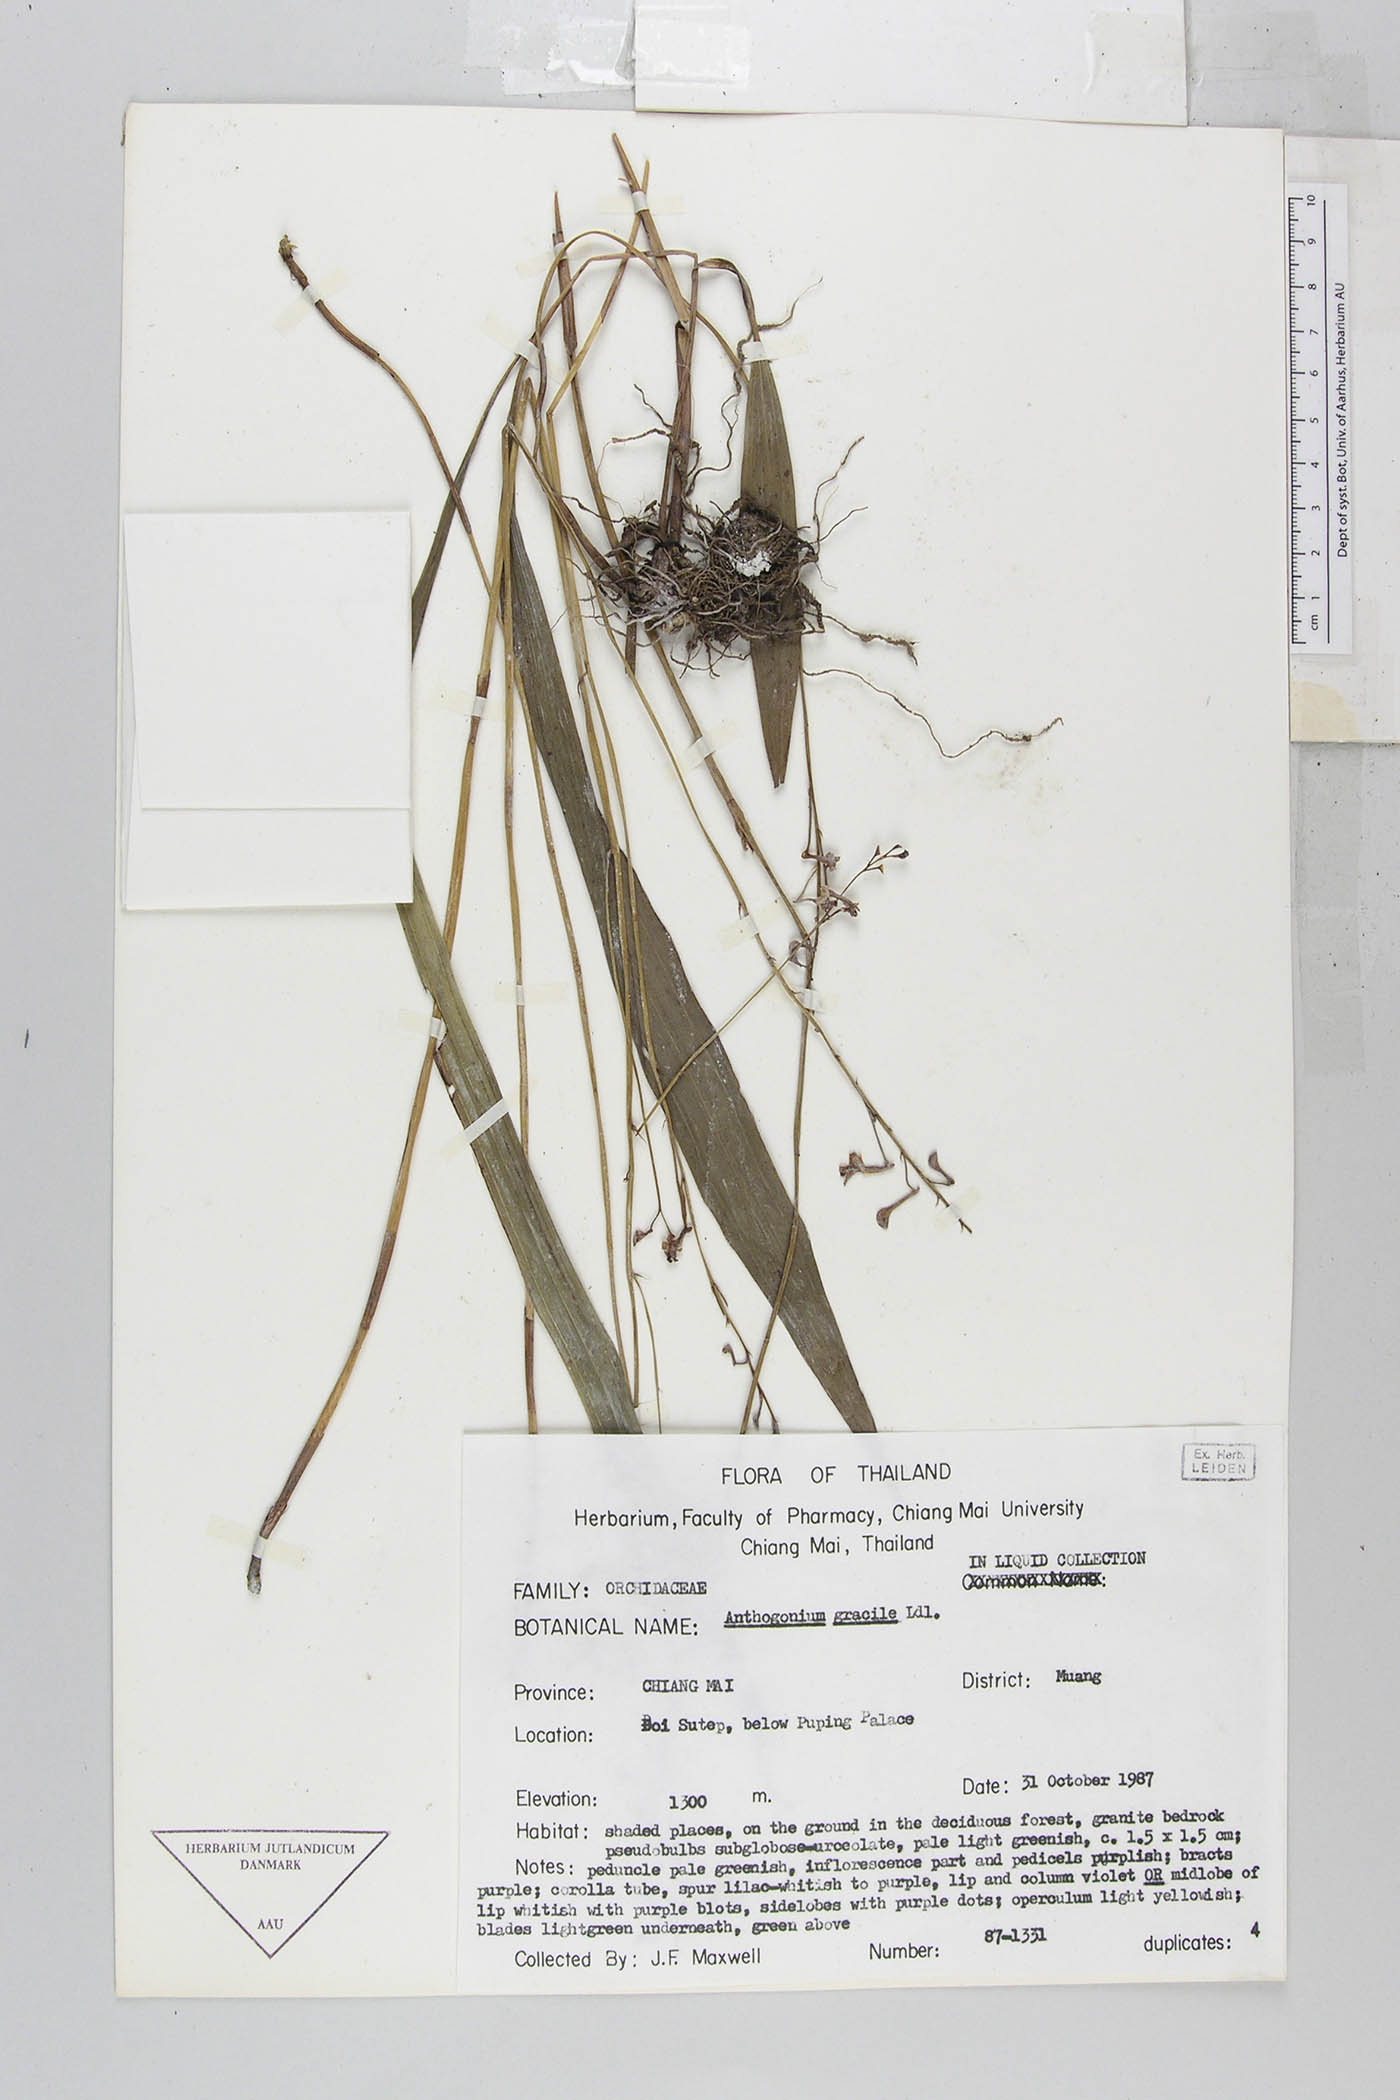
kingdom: Plantae
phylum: Tracheophyta
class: Liliopsida
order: Asparagales
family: Orchidaceae
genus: Anthogonium
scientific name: Anthogonium gracile
